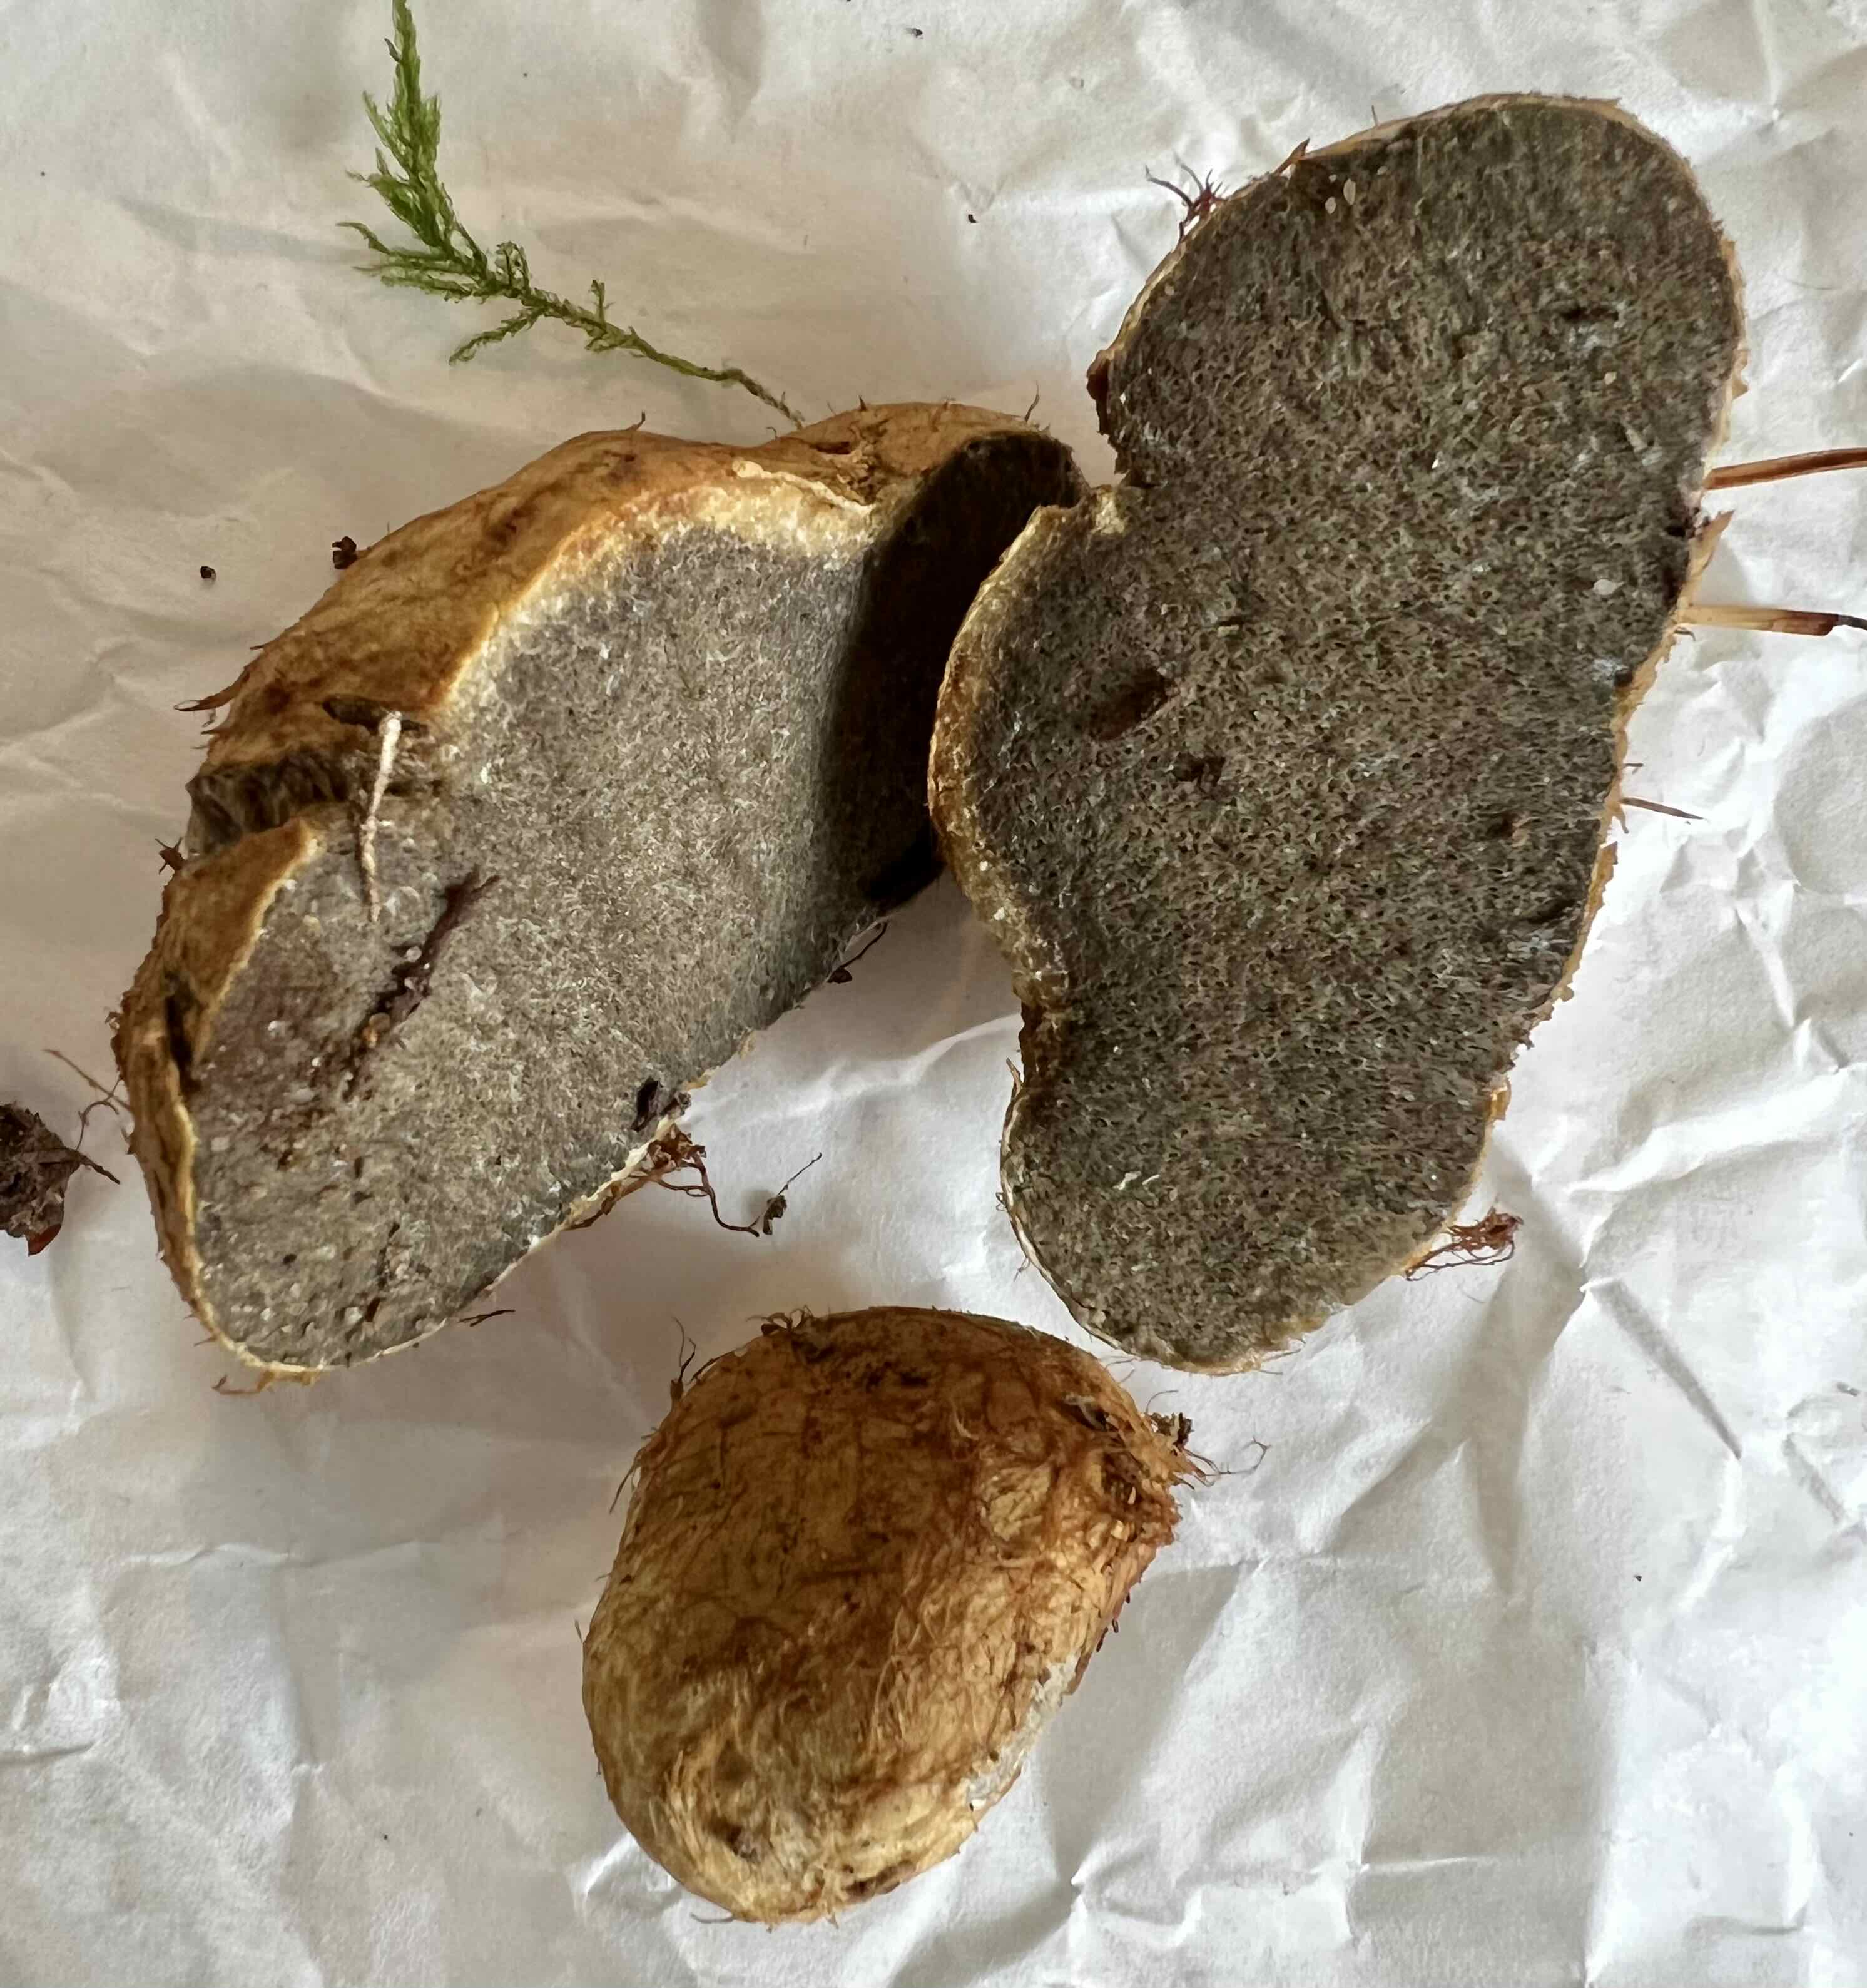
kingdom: Fungi
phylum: Basidiomycota
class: Agaricomycetes
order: Boletales
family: Rhizopogonaceae
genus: Rhizopogon
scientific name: Rhizopogon obtextus
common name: gul skægtrøffel
